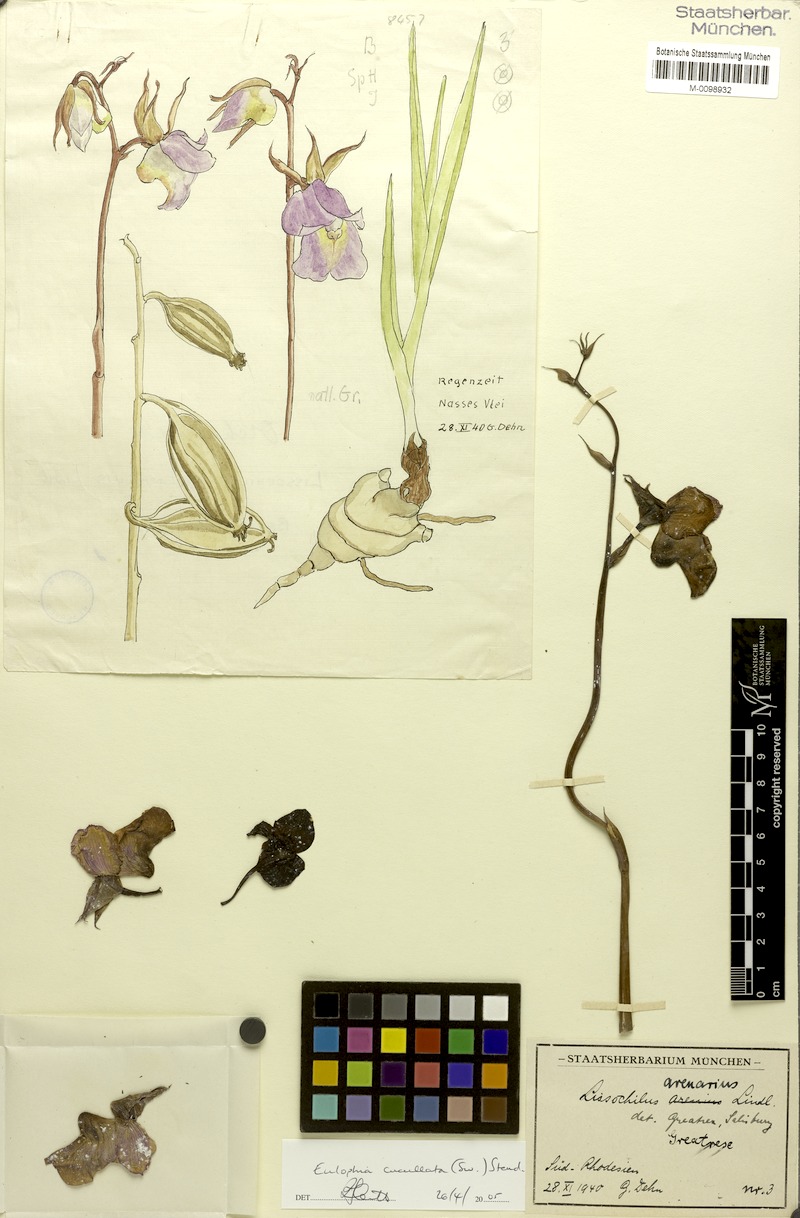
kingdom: Plantae
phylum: Tracheophyta
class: Liliopsida
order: Asparagales
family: Orchidaceae
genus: Eulophia
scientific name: Eulophia cucullata
